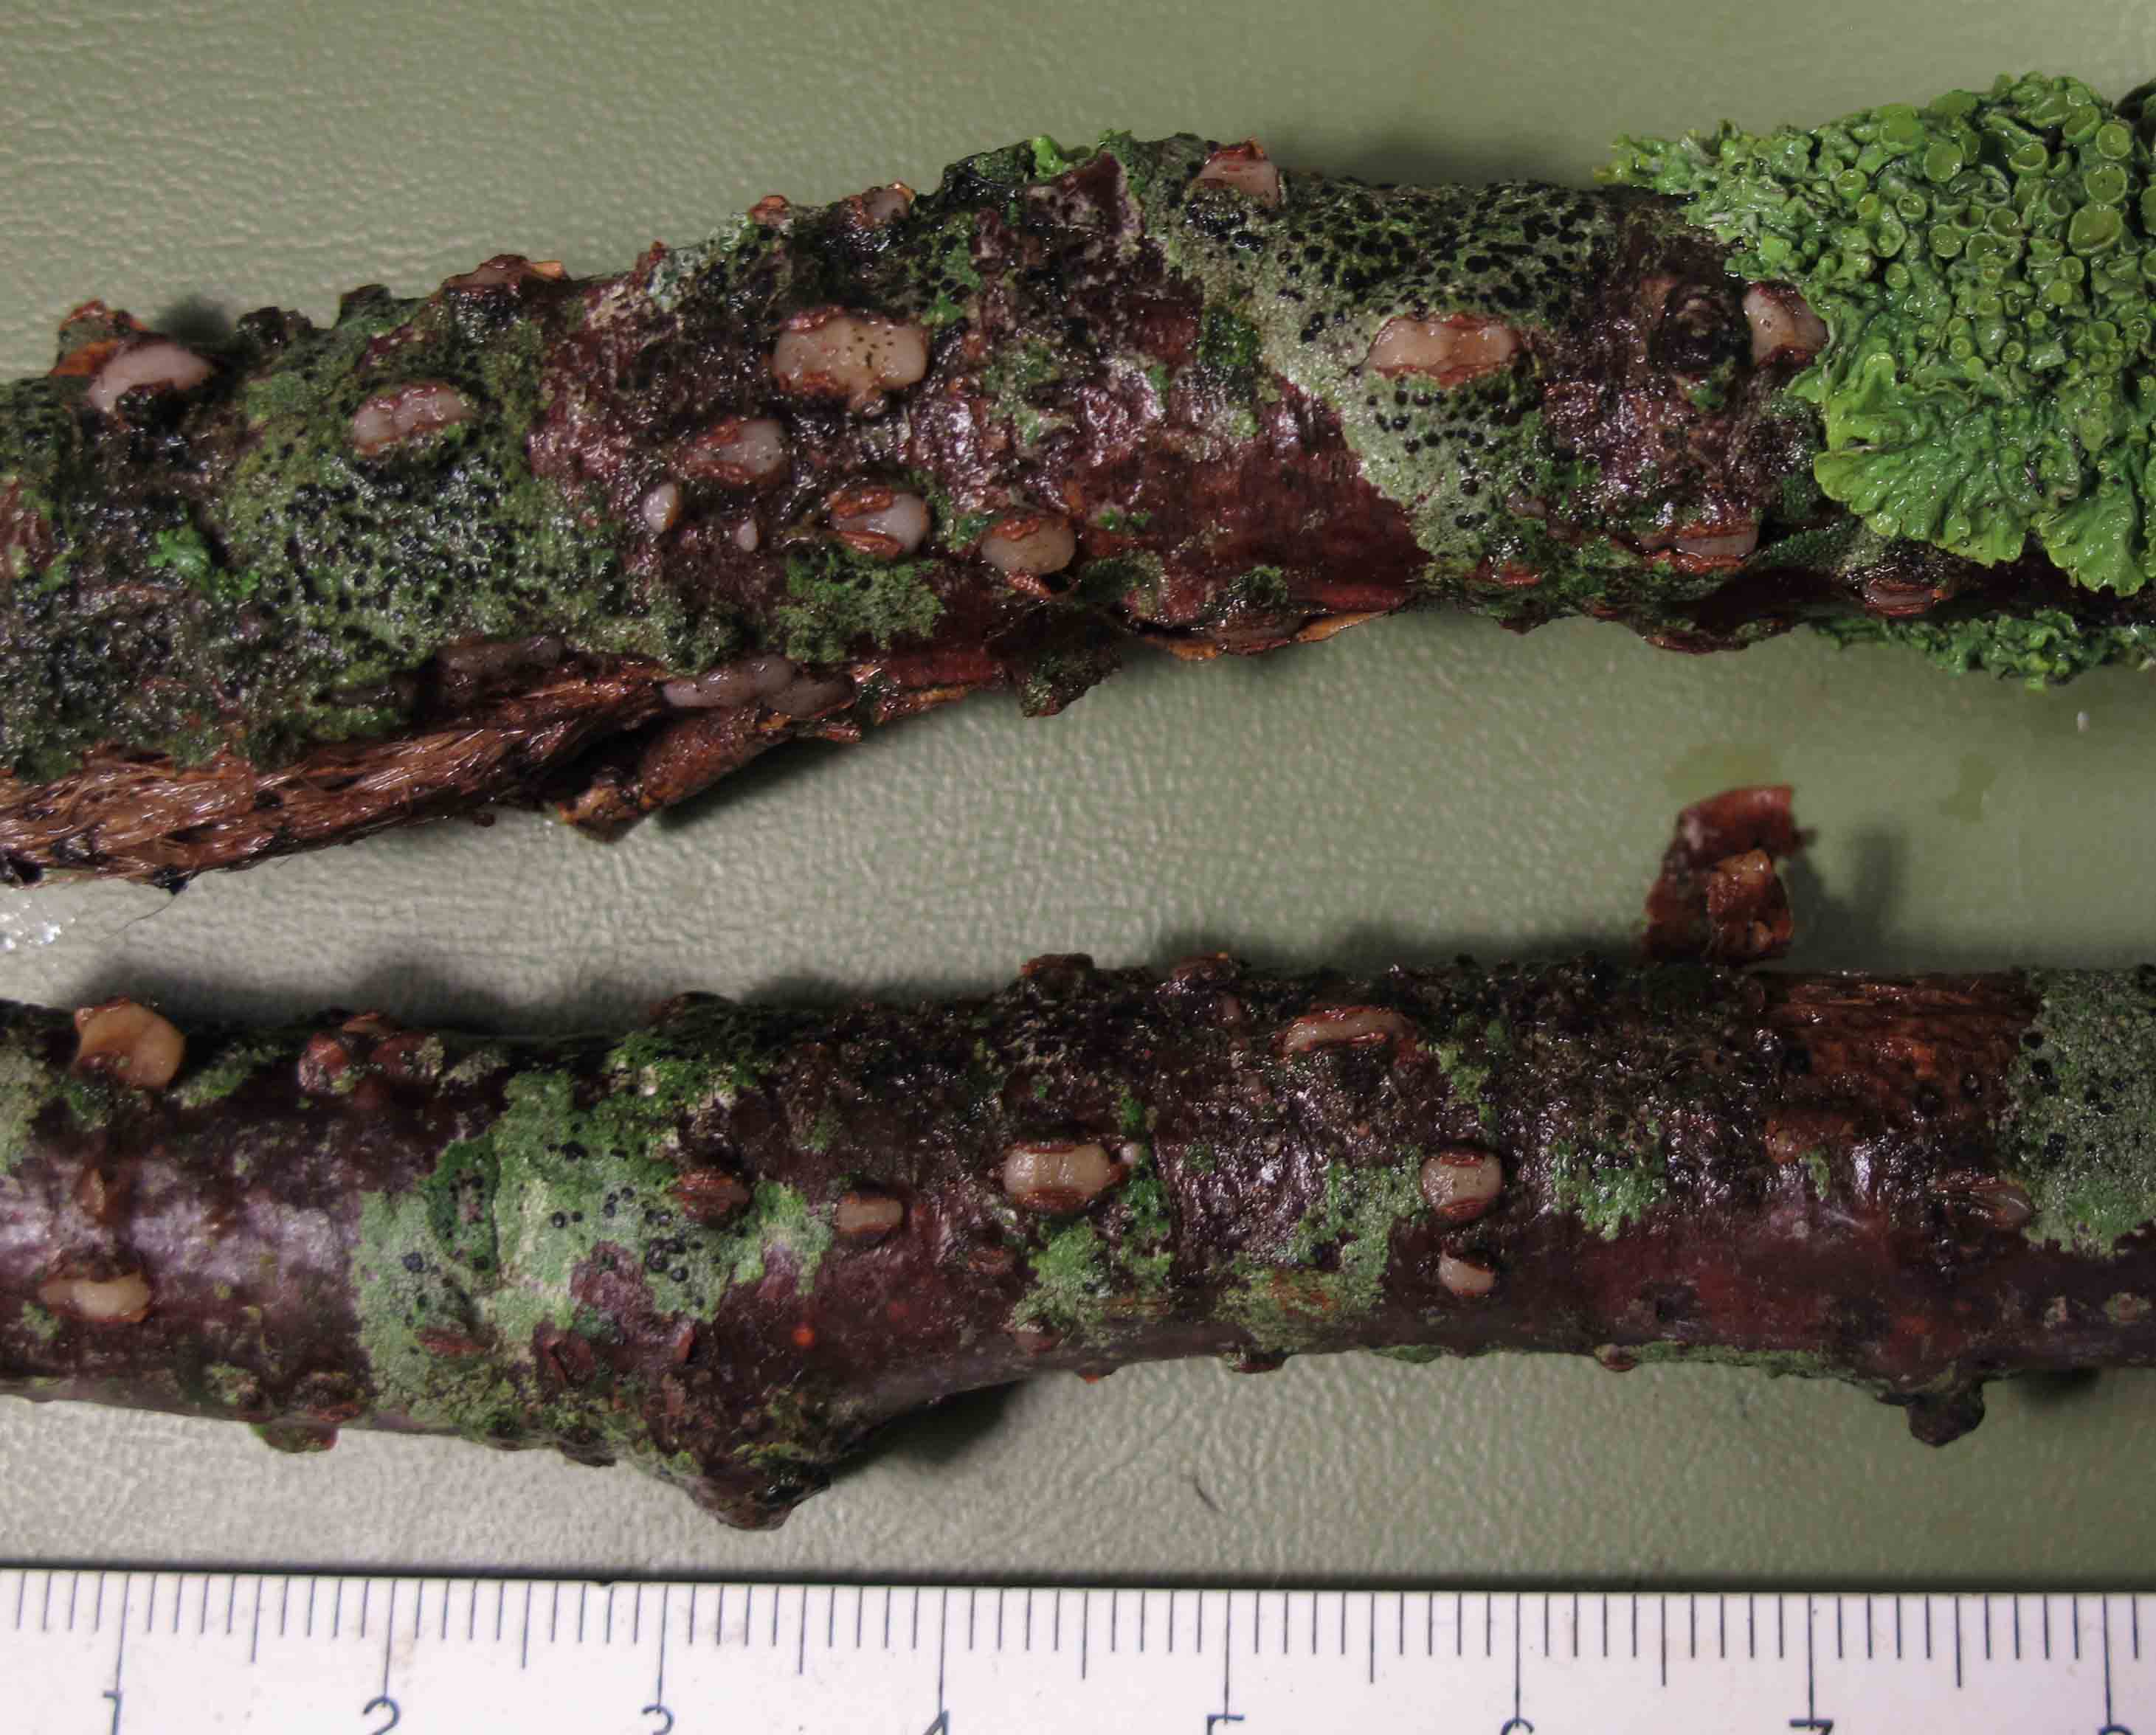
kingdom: Fungi
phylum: Basidiomycota
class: Pucciniomycetes
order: Platygloeales
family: Platygloeaceae
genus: Platygloea
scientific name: Platygloea disciformis
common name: linde-slimklat
